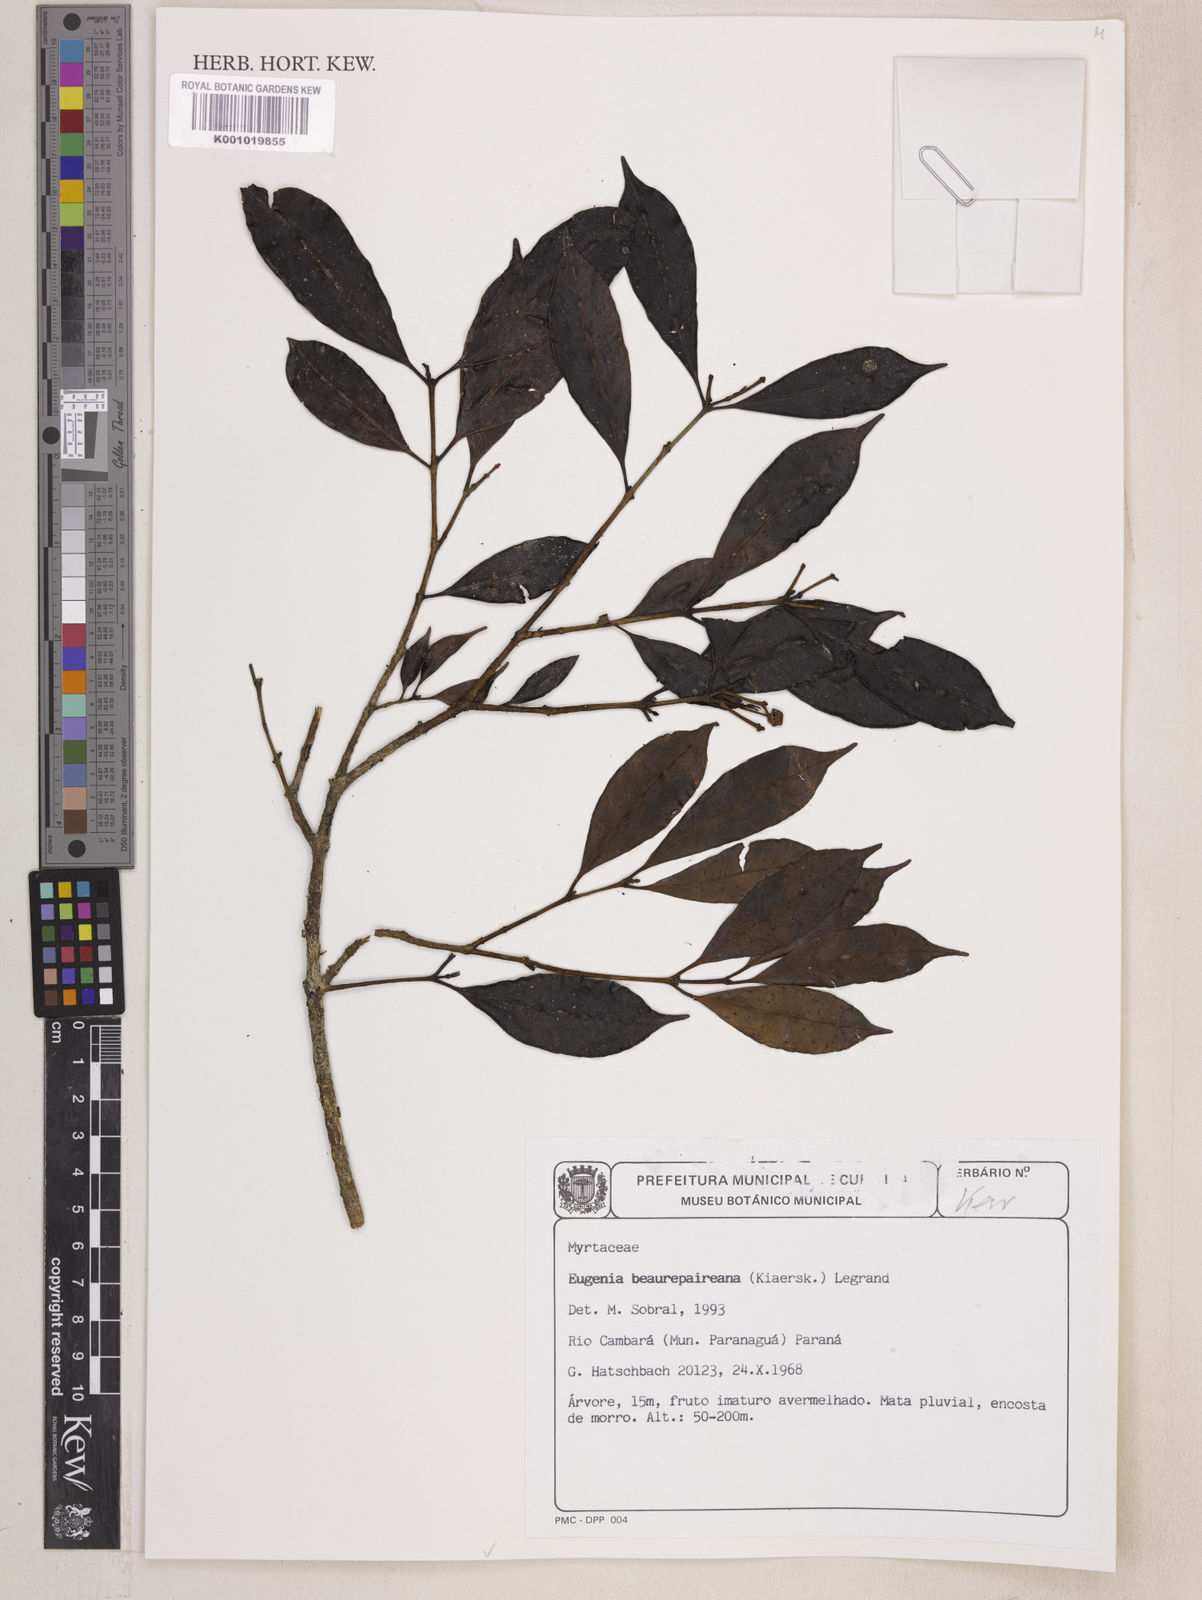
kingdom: Plantae
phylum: Tracheophyta
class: Magnoliopsida
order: Myrtales
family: Myrtaceae
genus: Eugenia
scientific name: Eugenia ternatifolia
